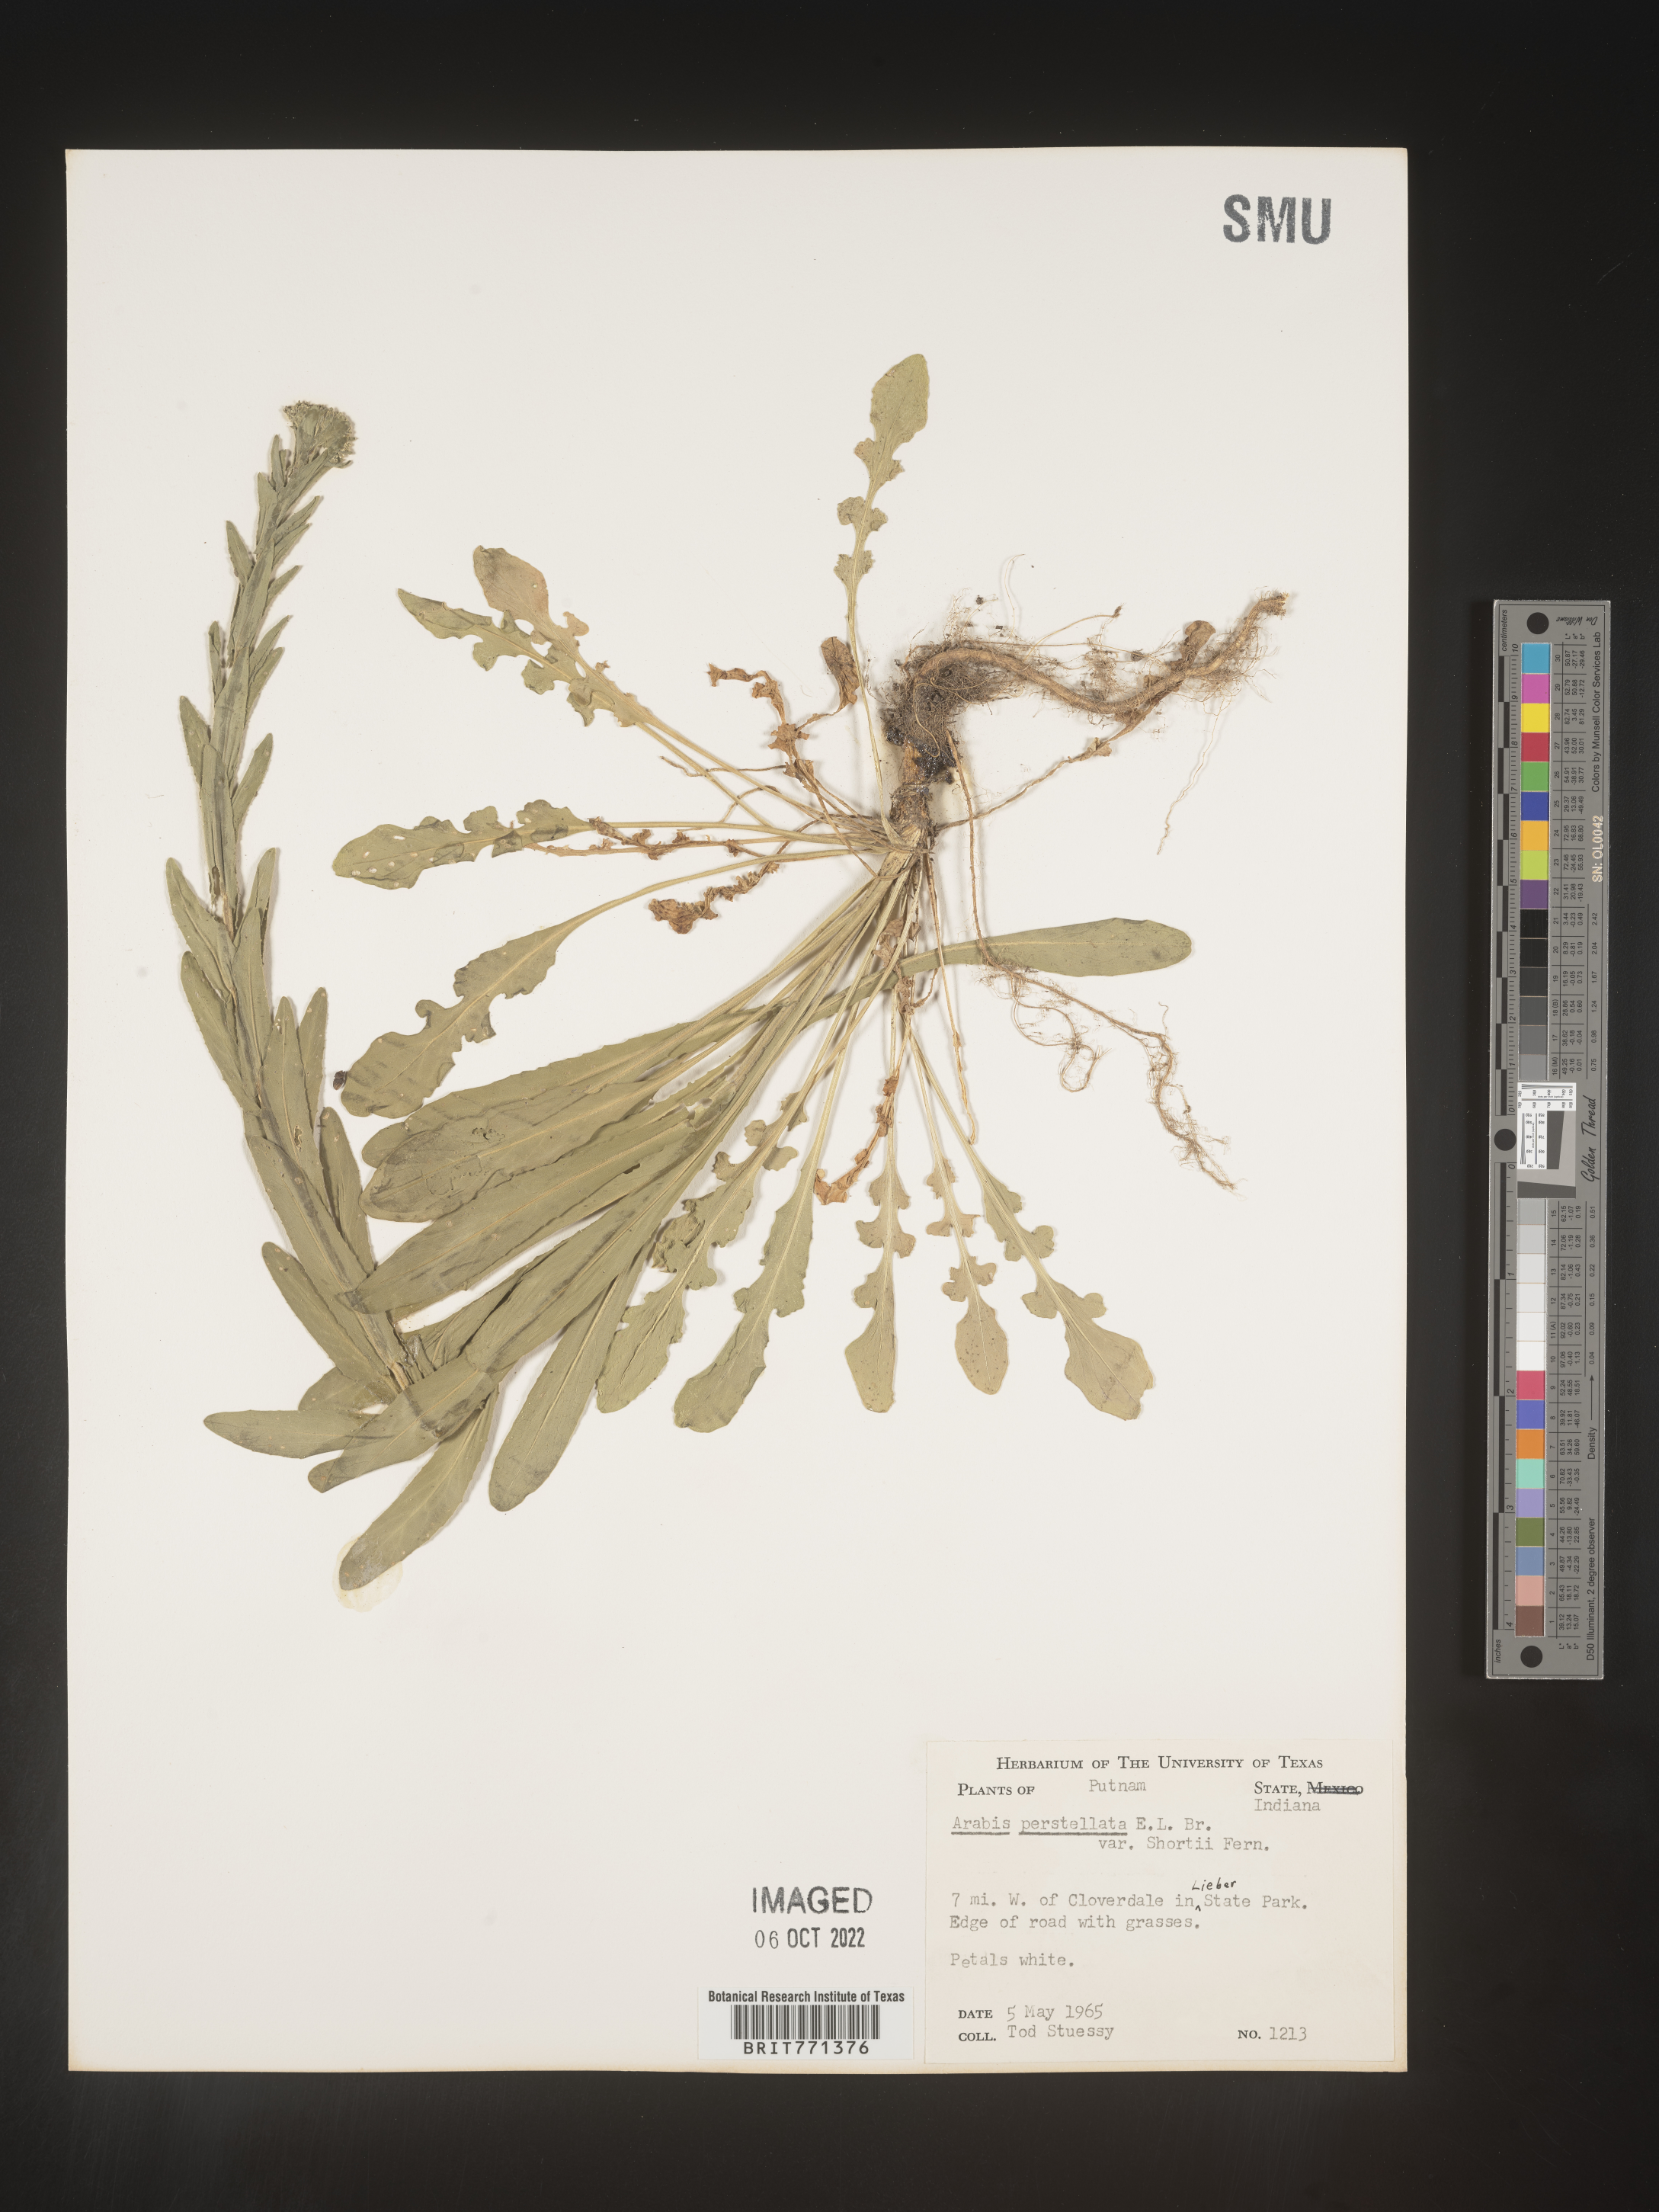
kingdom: Plantae
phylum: Tracheophyta
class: Magnoliopsida
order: Brassicales
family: Brassicaceae
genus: Arabis
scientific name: Arabis
